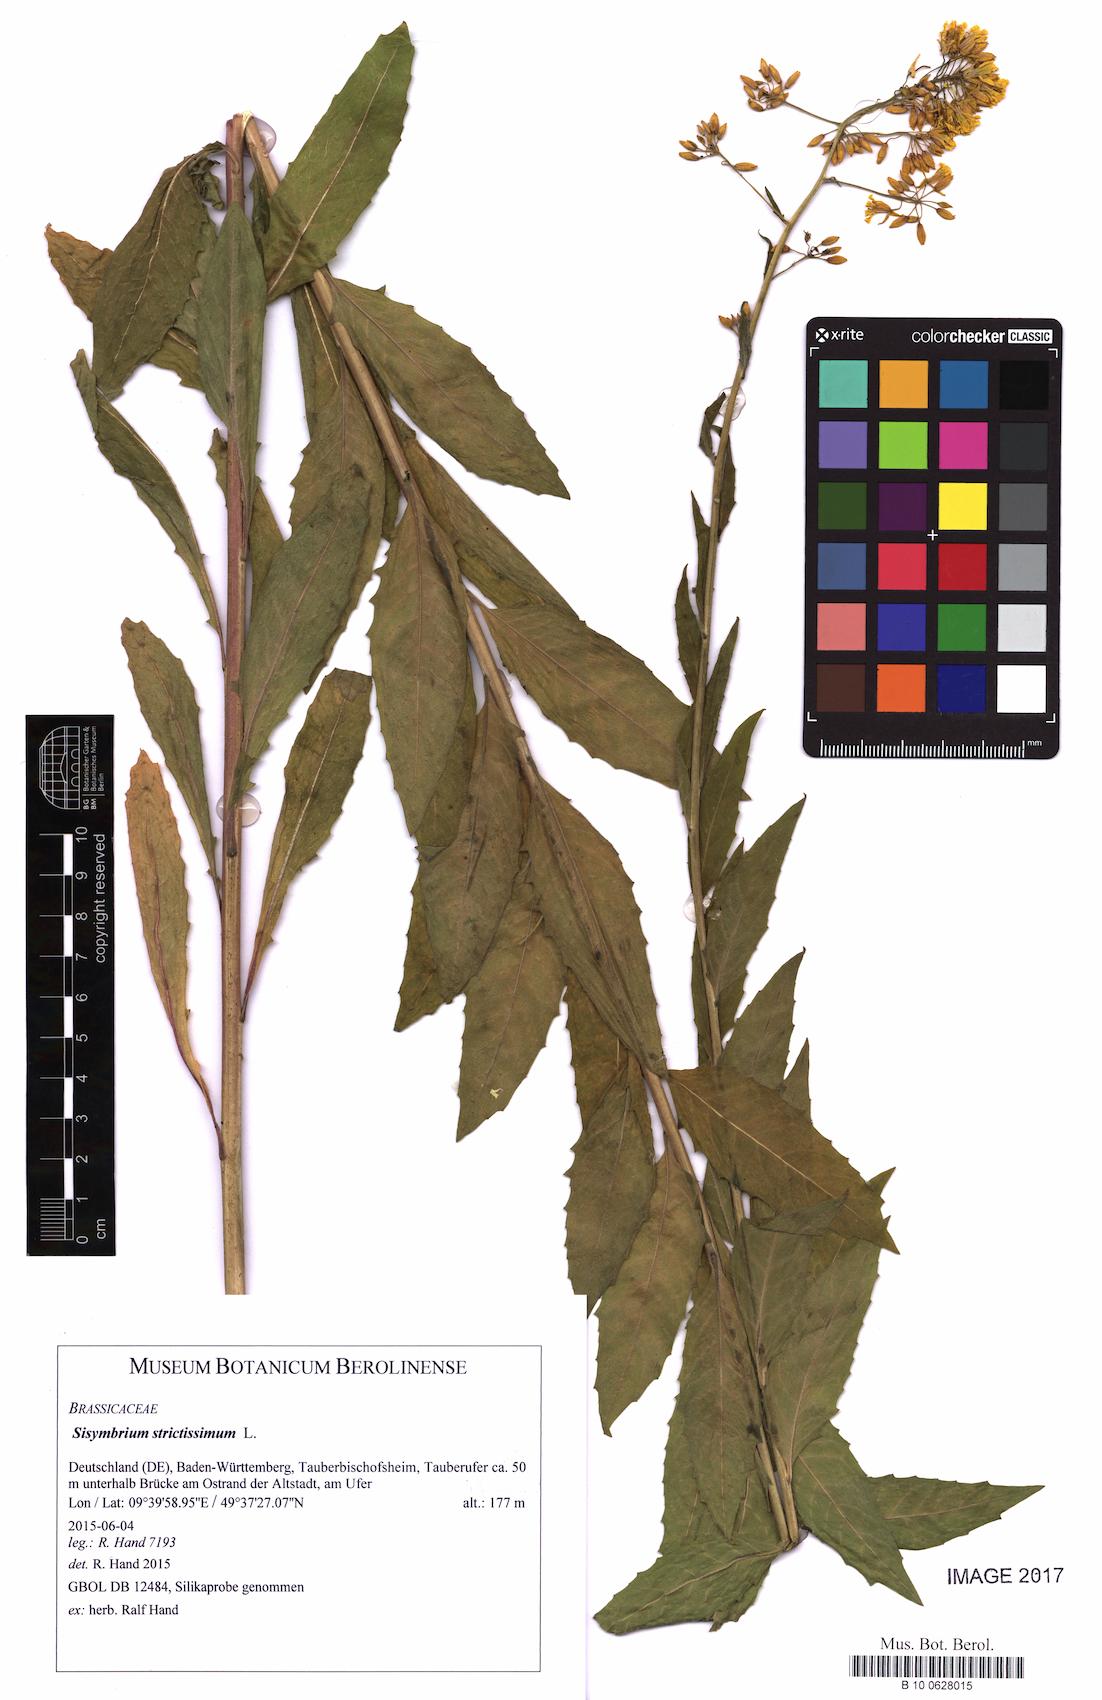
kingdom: Plantae
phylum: Tracheophyta
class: Magnoliopsida
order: Brassicales
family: Brassicaceae
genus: Sisymbrium
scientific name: Sisymbrium strictissimum
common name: Perennial rocket
